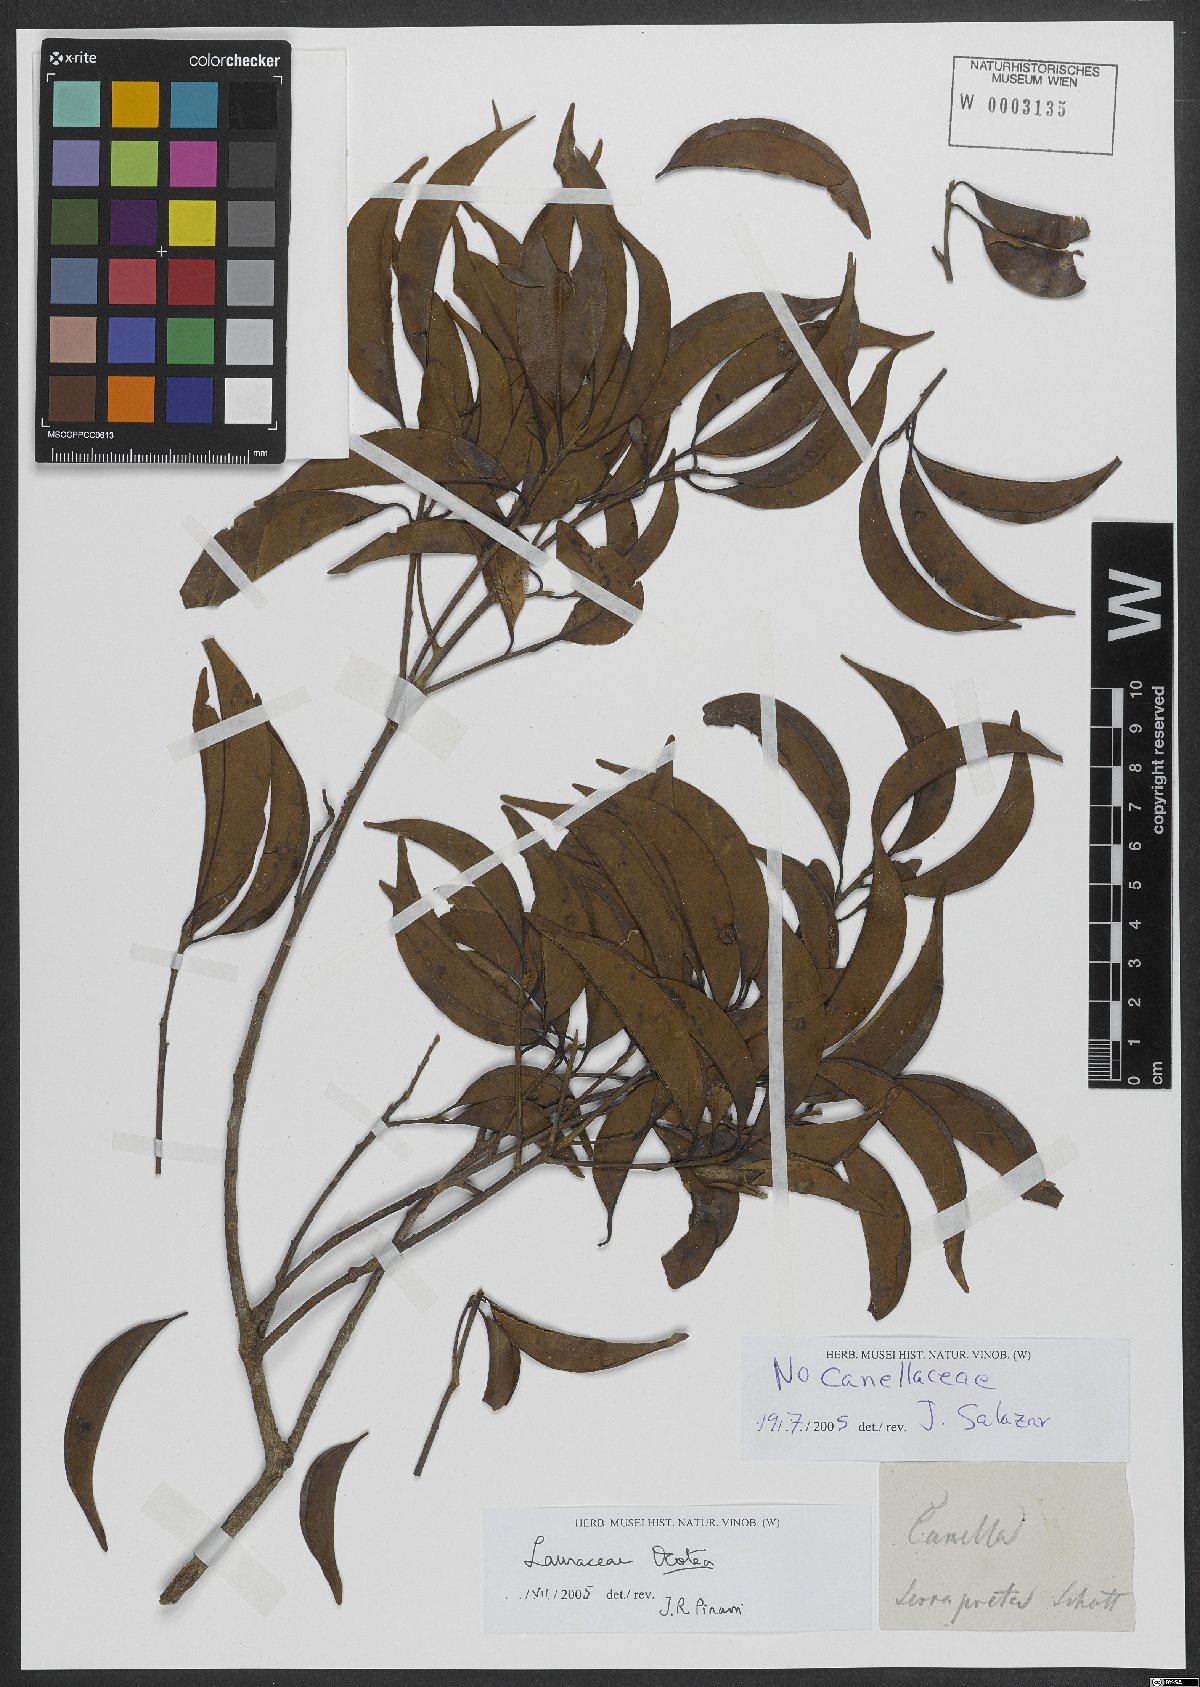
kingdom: Plantae
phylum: Tracheophyta
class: Magnoliopsida
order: Laurales
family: Lauraceae
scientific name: Lauraceae
